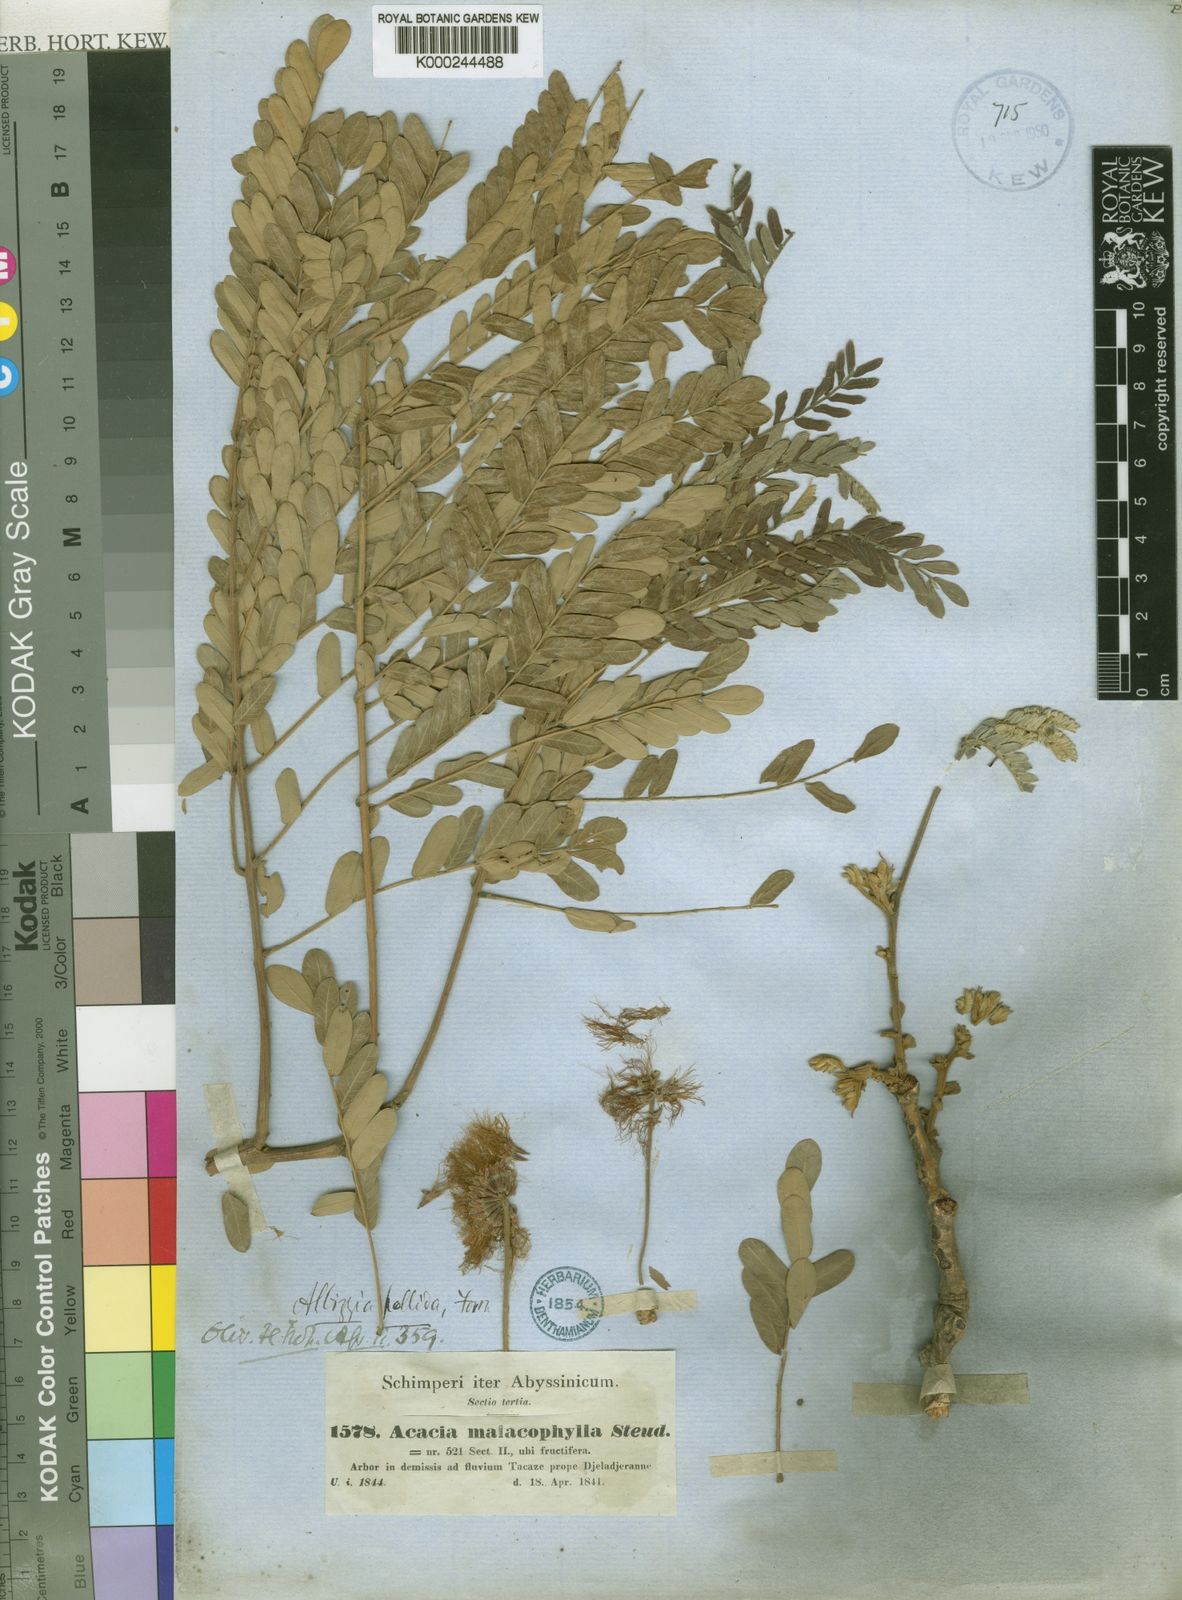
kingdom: Plantae
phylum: Tracheophyta
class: Magnoliopsida
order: Fabales
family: Fabaceae
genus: Acacia
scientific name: Acacia
